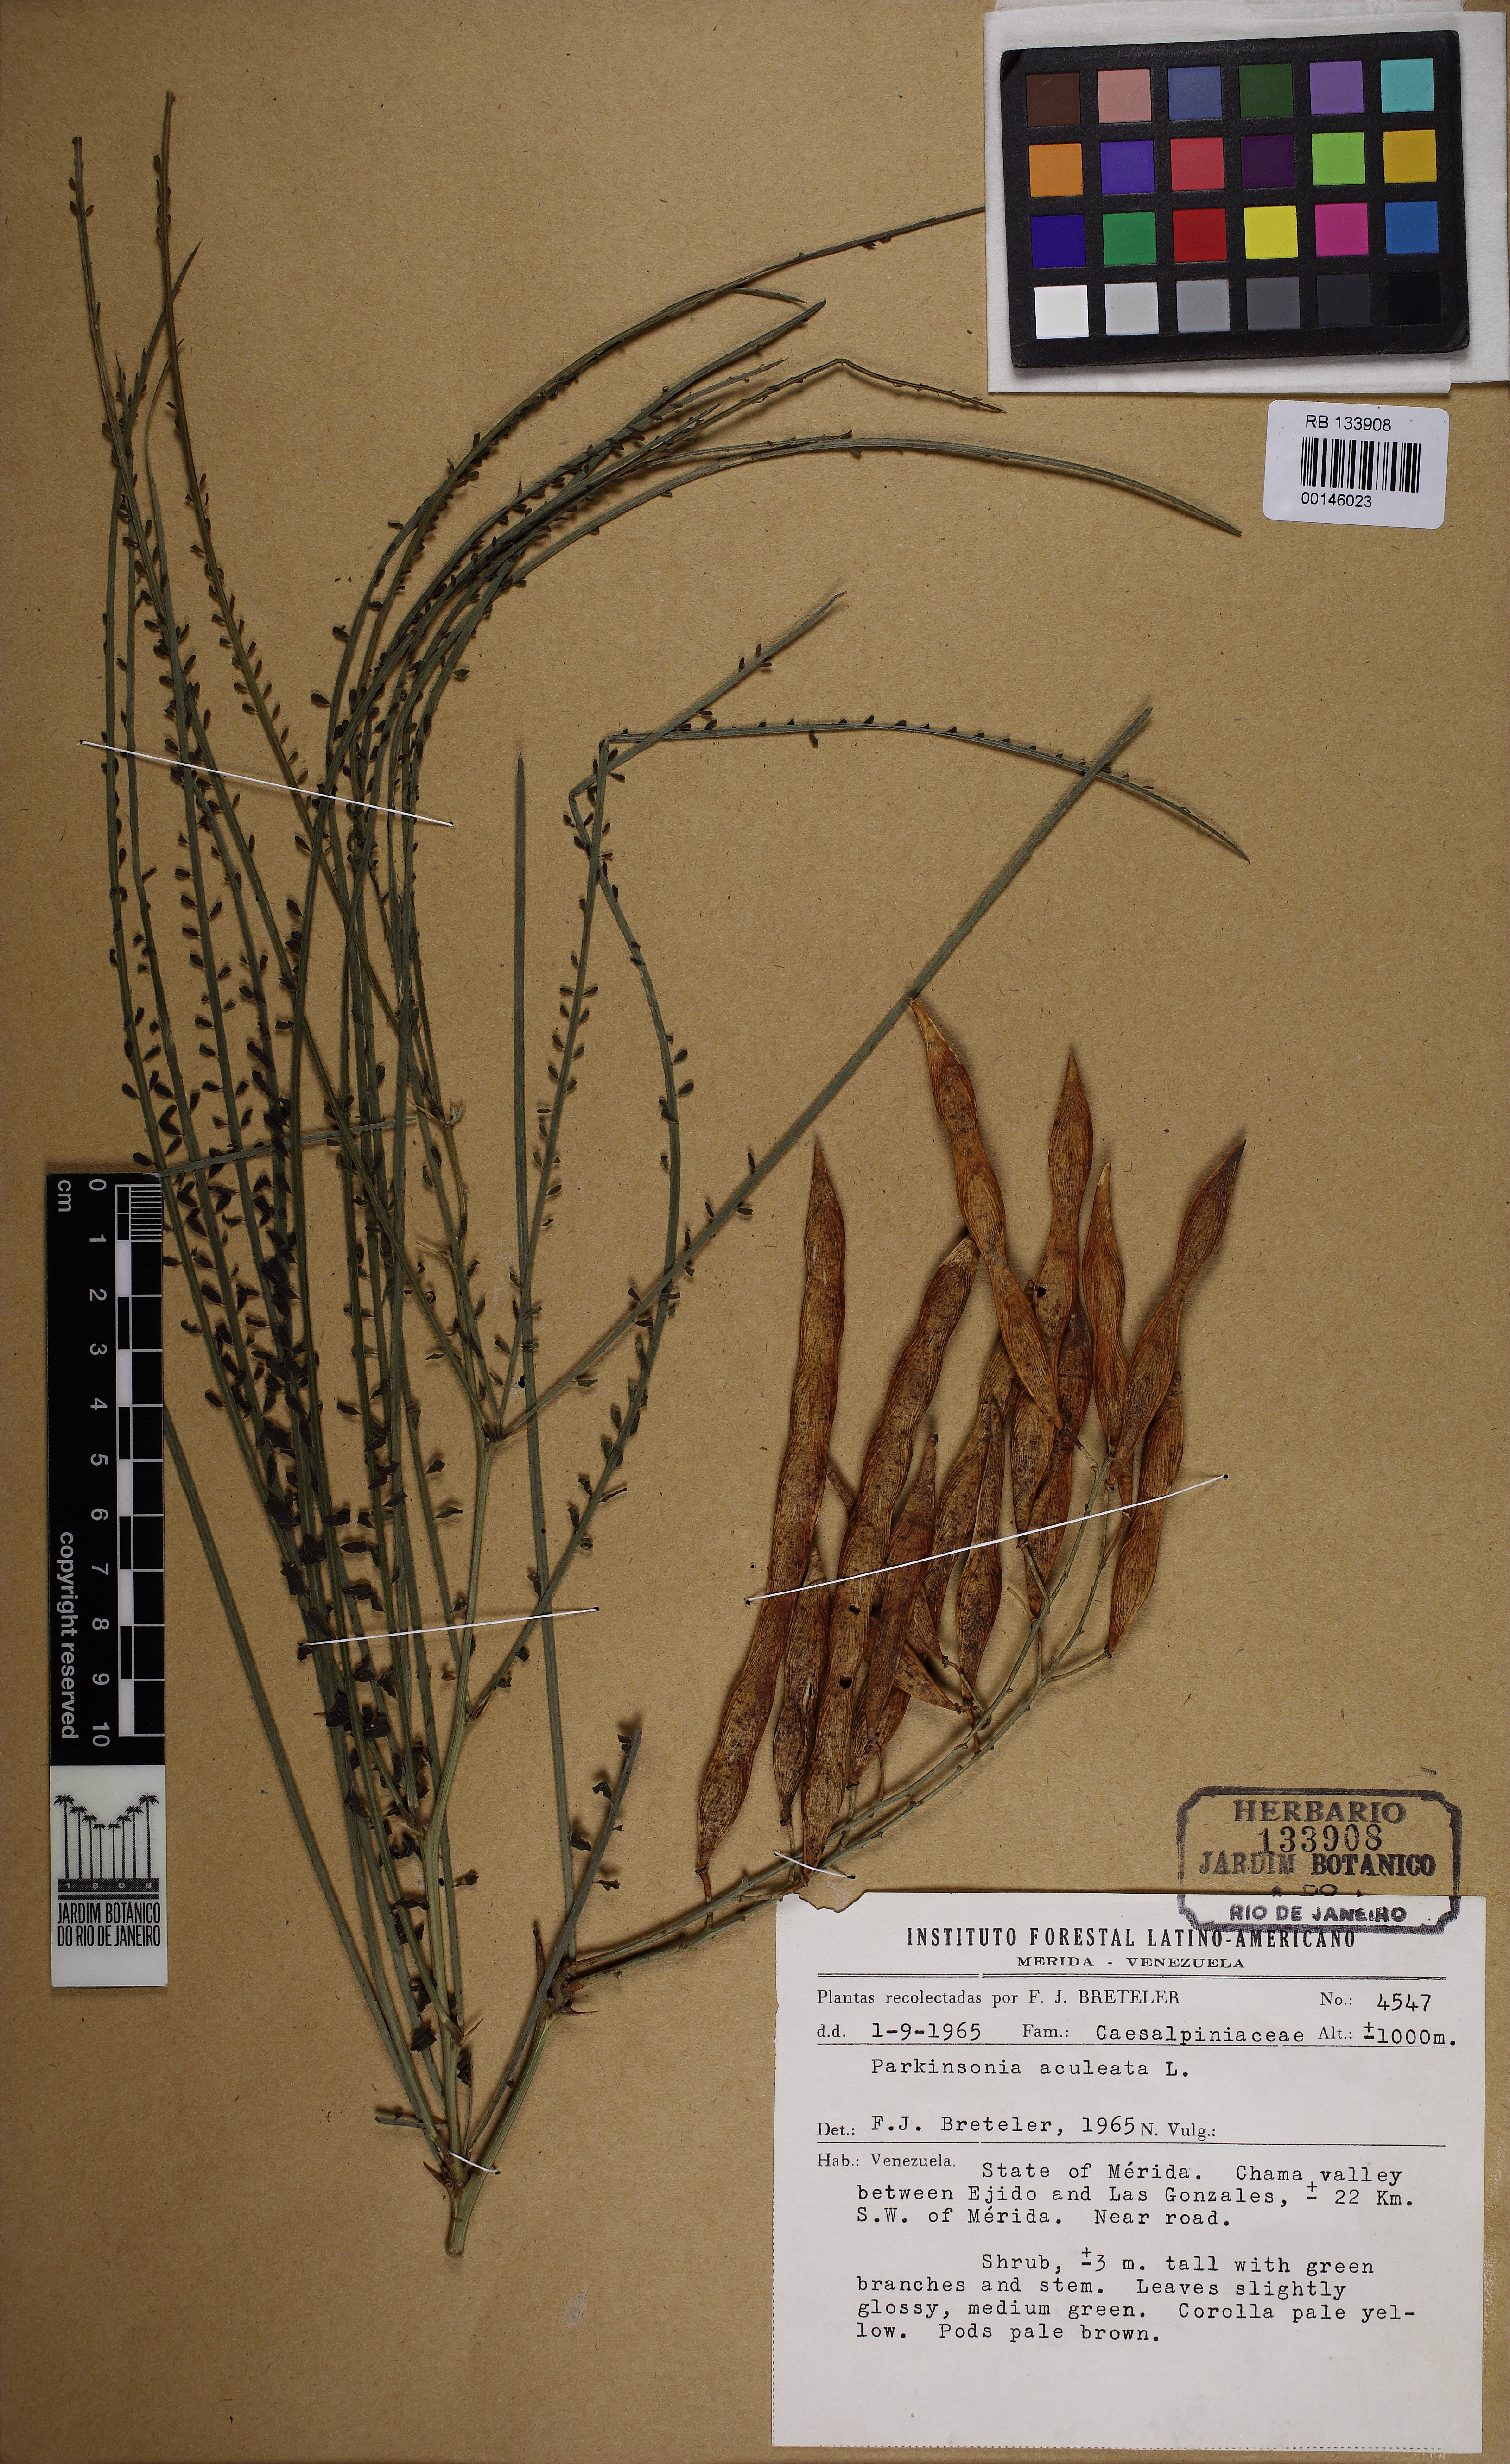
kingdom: Plantae
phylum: Tracheophyta
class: Magnoliopsida
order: Fabales
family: Fabaceae
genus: Parkinsonia
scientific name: Parkinsonia aculeata
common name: Jerusalem thorn
